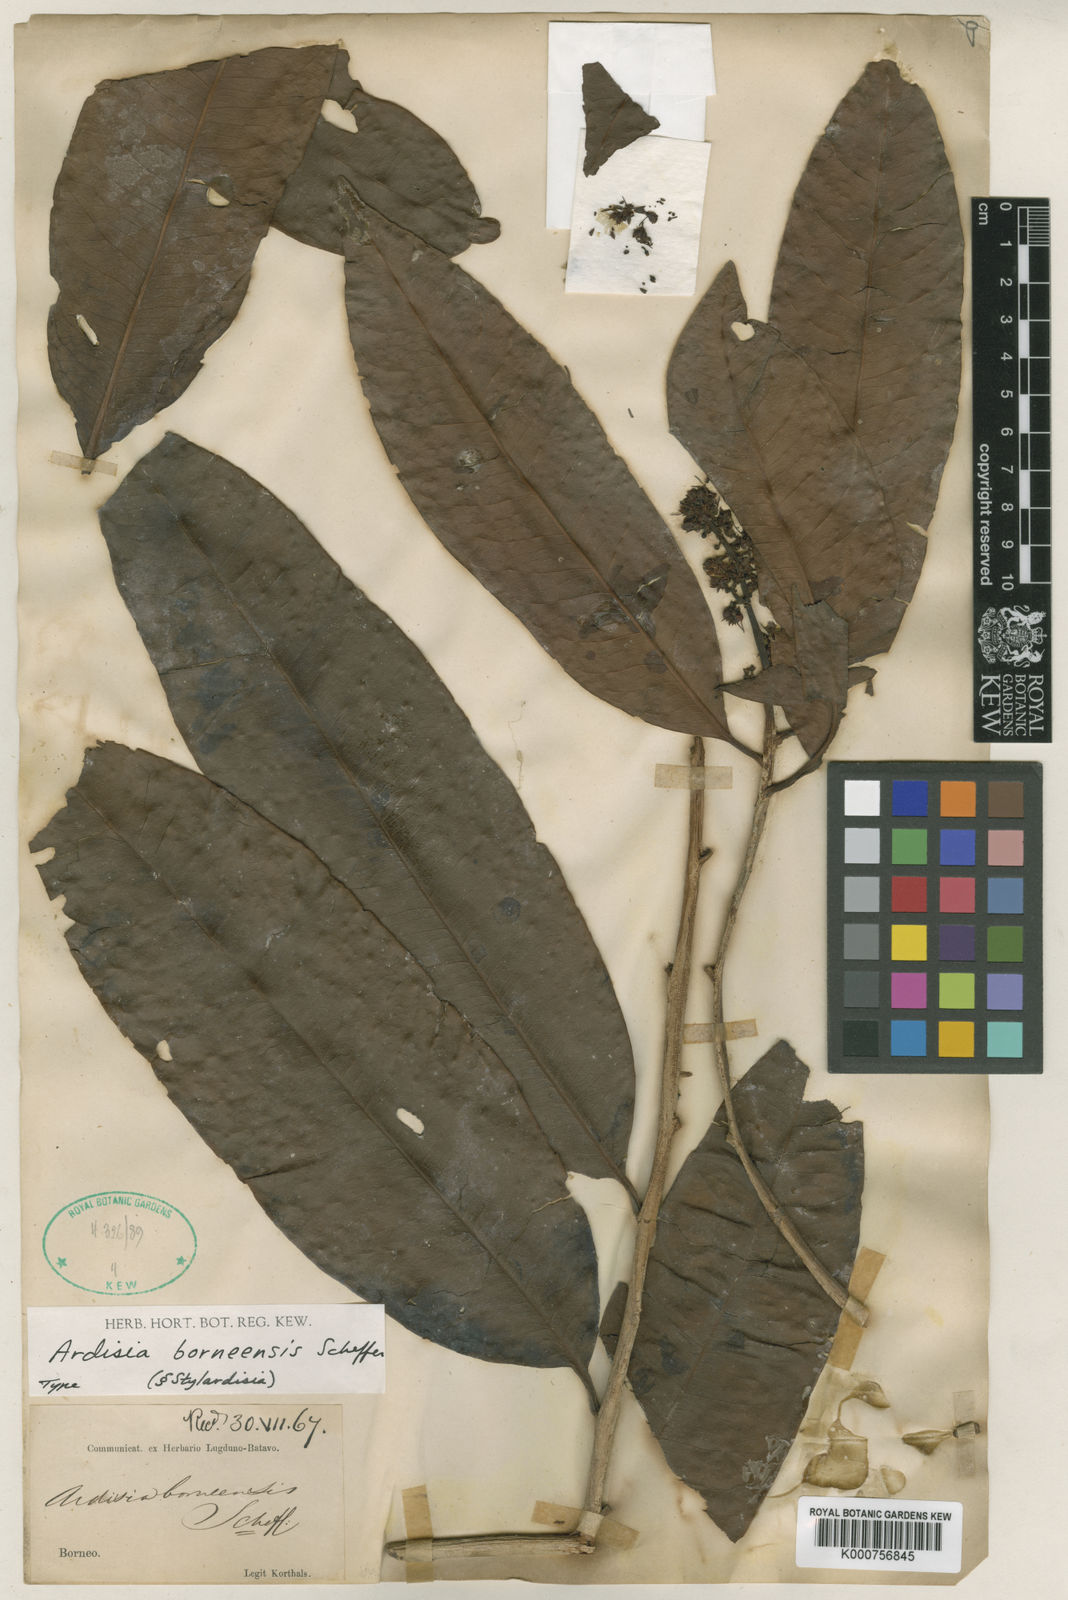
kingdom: Plantae
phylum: Tracheophyta
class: Magnoliopsida
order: Ericales
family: Primulaceae
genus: Ardisia
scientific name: Ardisia borneensis
